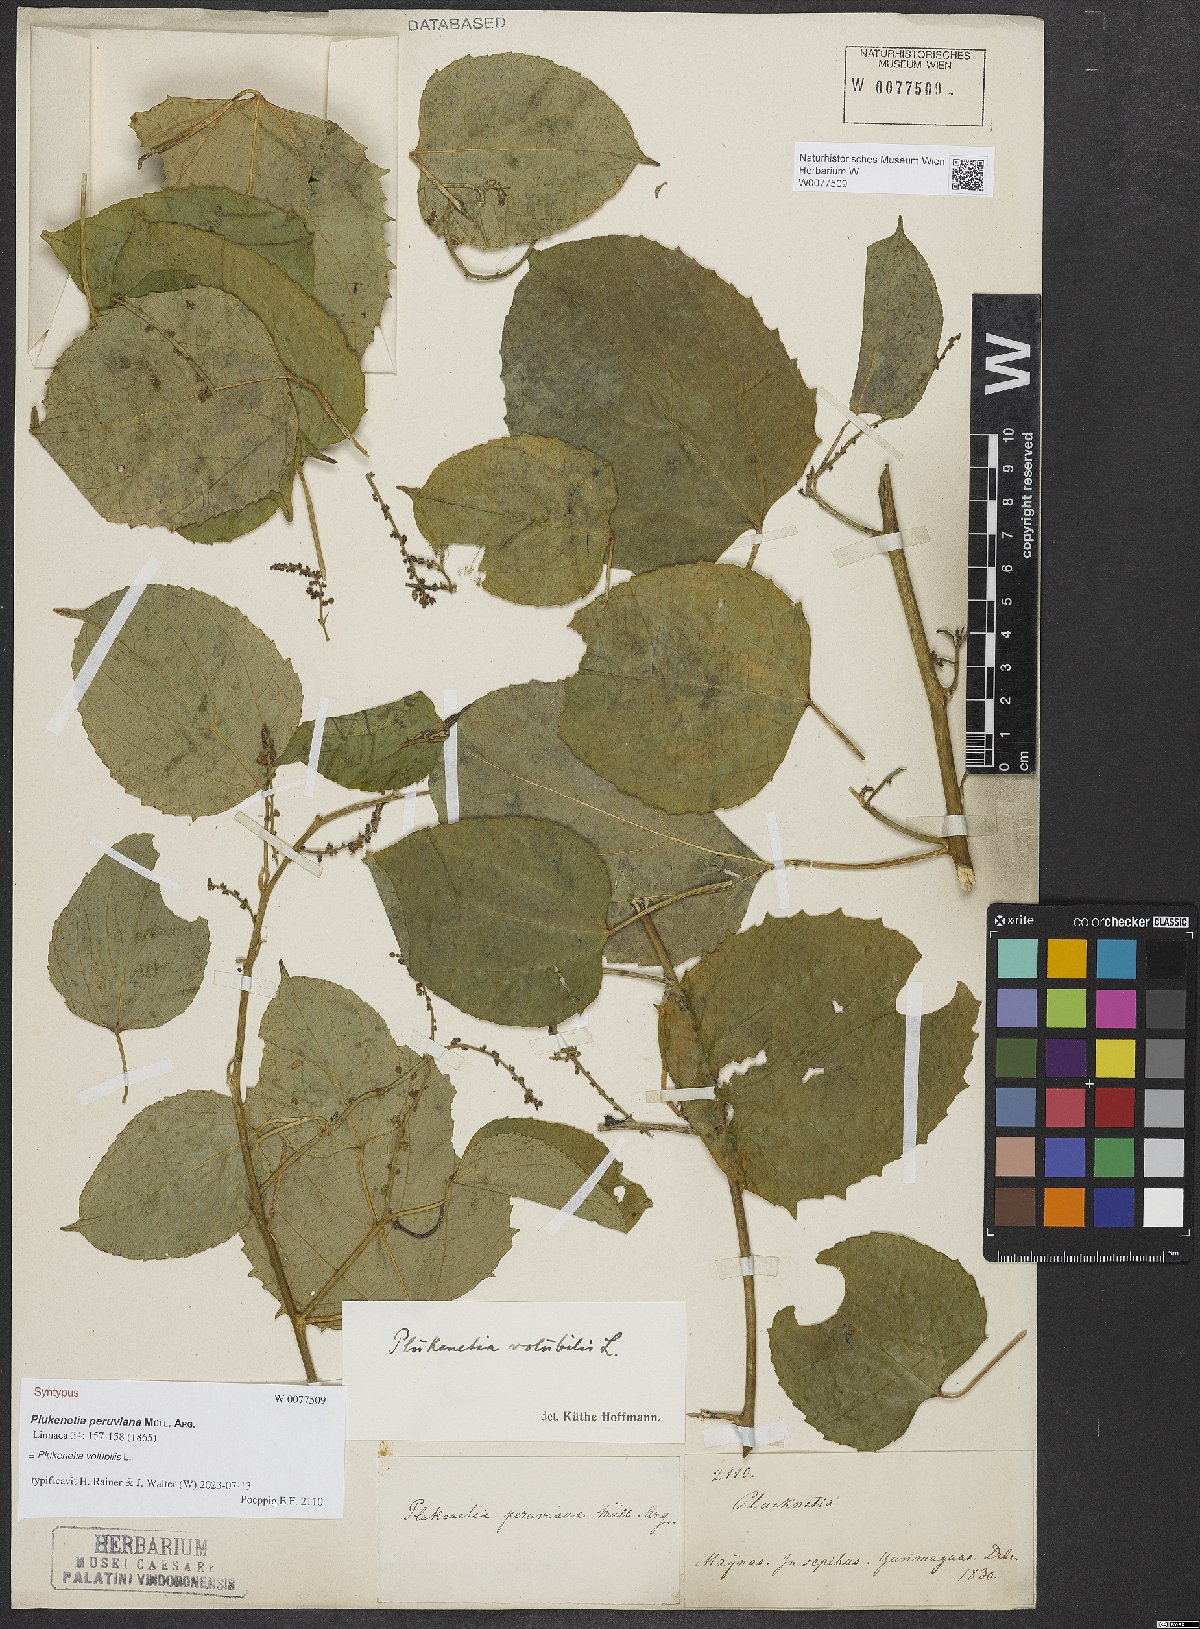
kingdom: Plantae
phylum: Tracheophyta
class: Magnoliopsida
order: Malpighiales
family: Euphorbiaceae
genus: Plukenetia
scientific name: Plukenetia volubilis
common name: Inca-peanut
